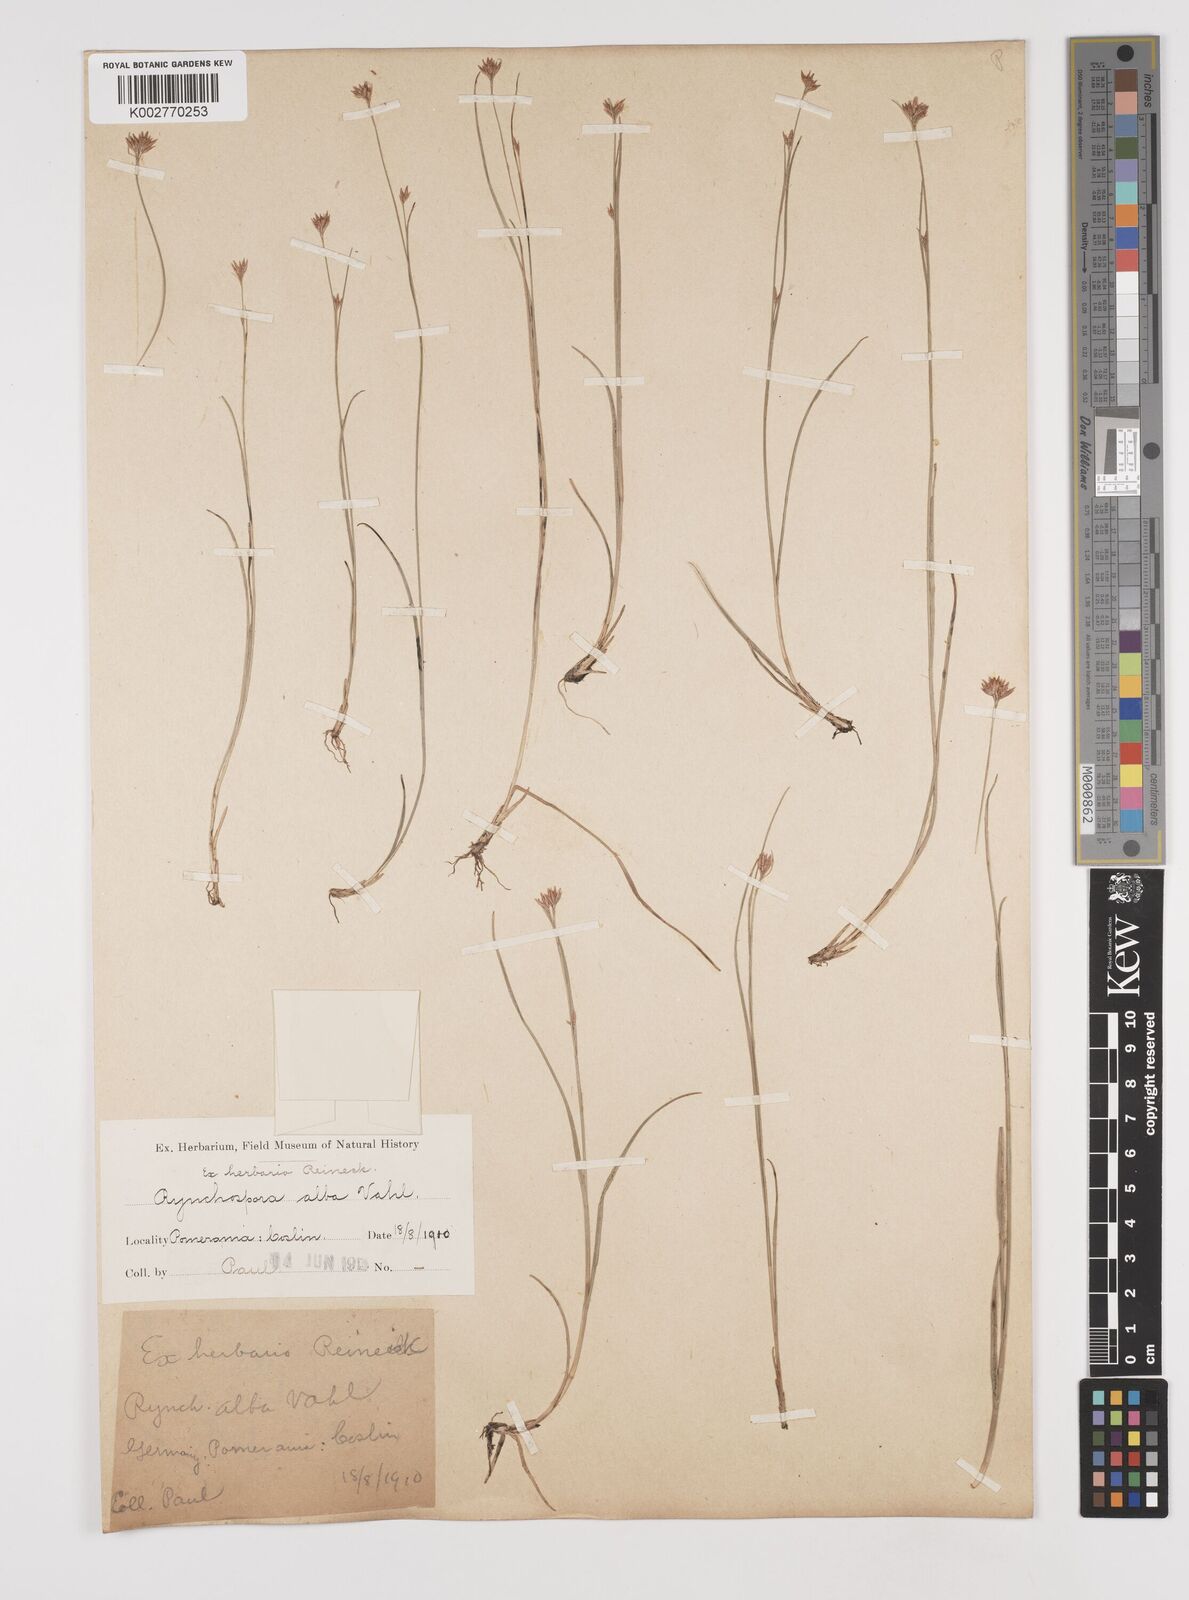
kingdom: Plantae
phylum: Tracheophyta
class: Liliopsida
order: Poales
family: Cyperaceae
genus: Rhynchospora
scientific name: Rhynchospora alba
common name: White beak-sedge
